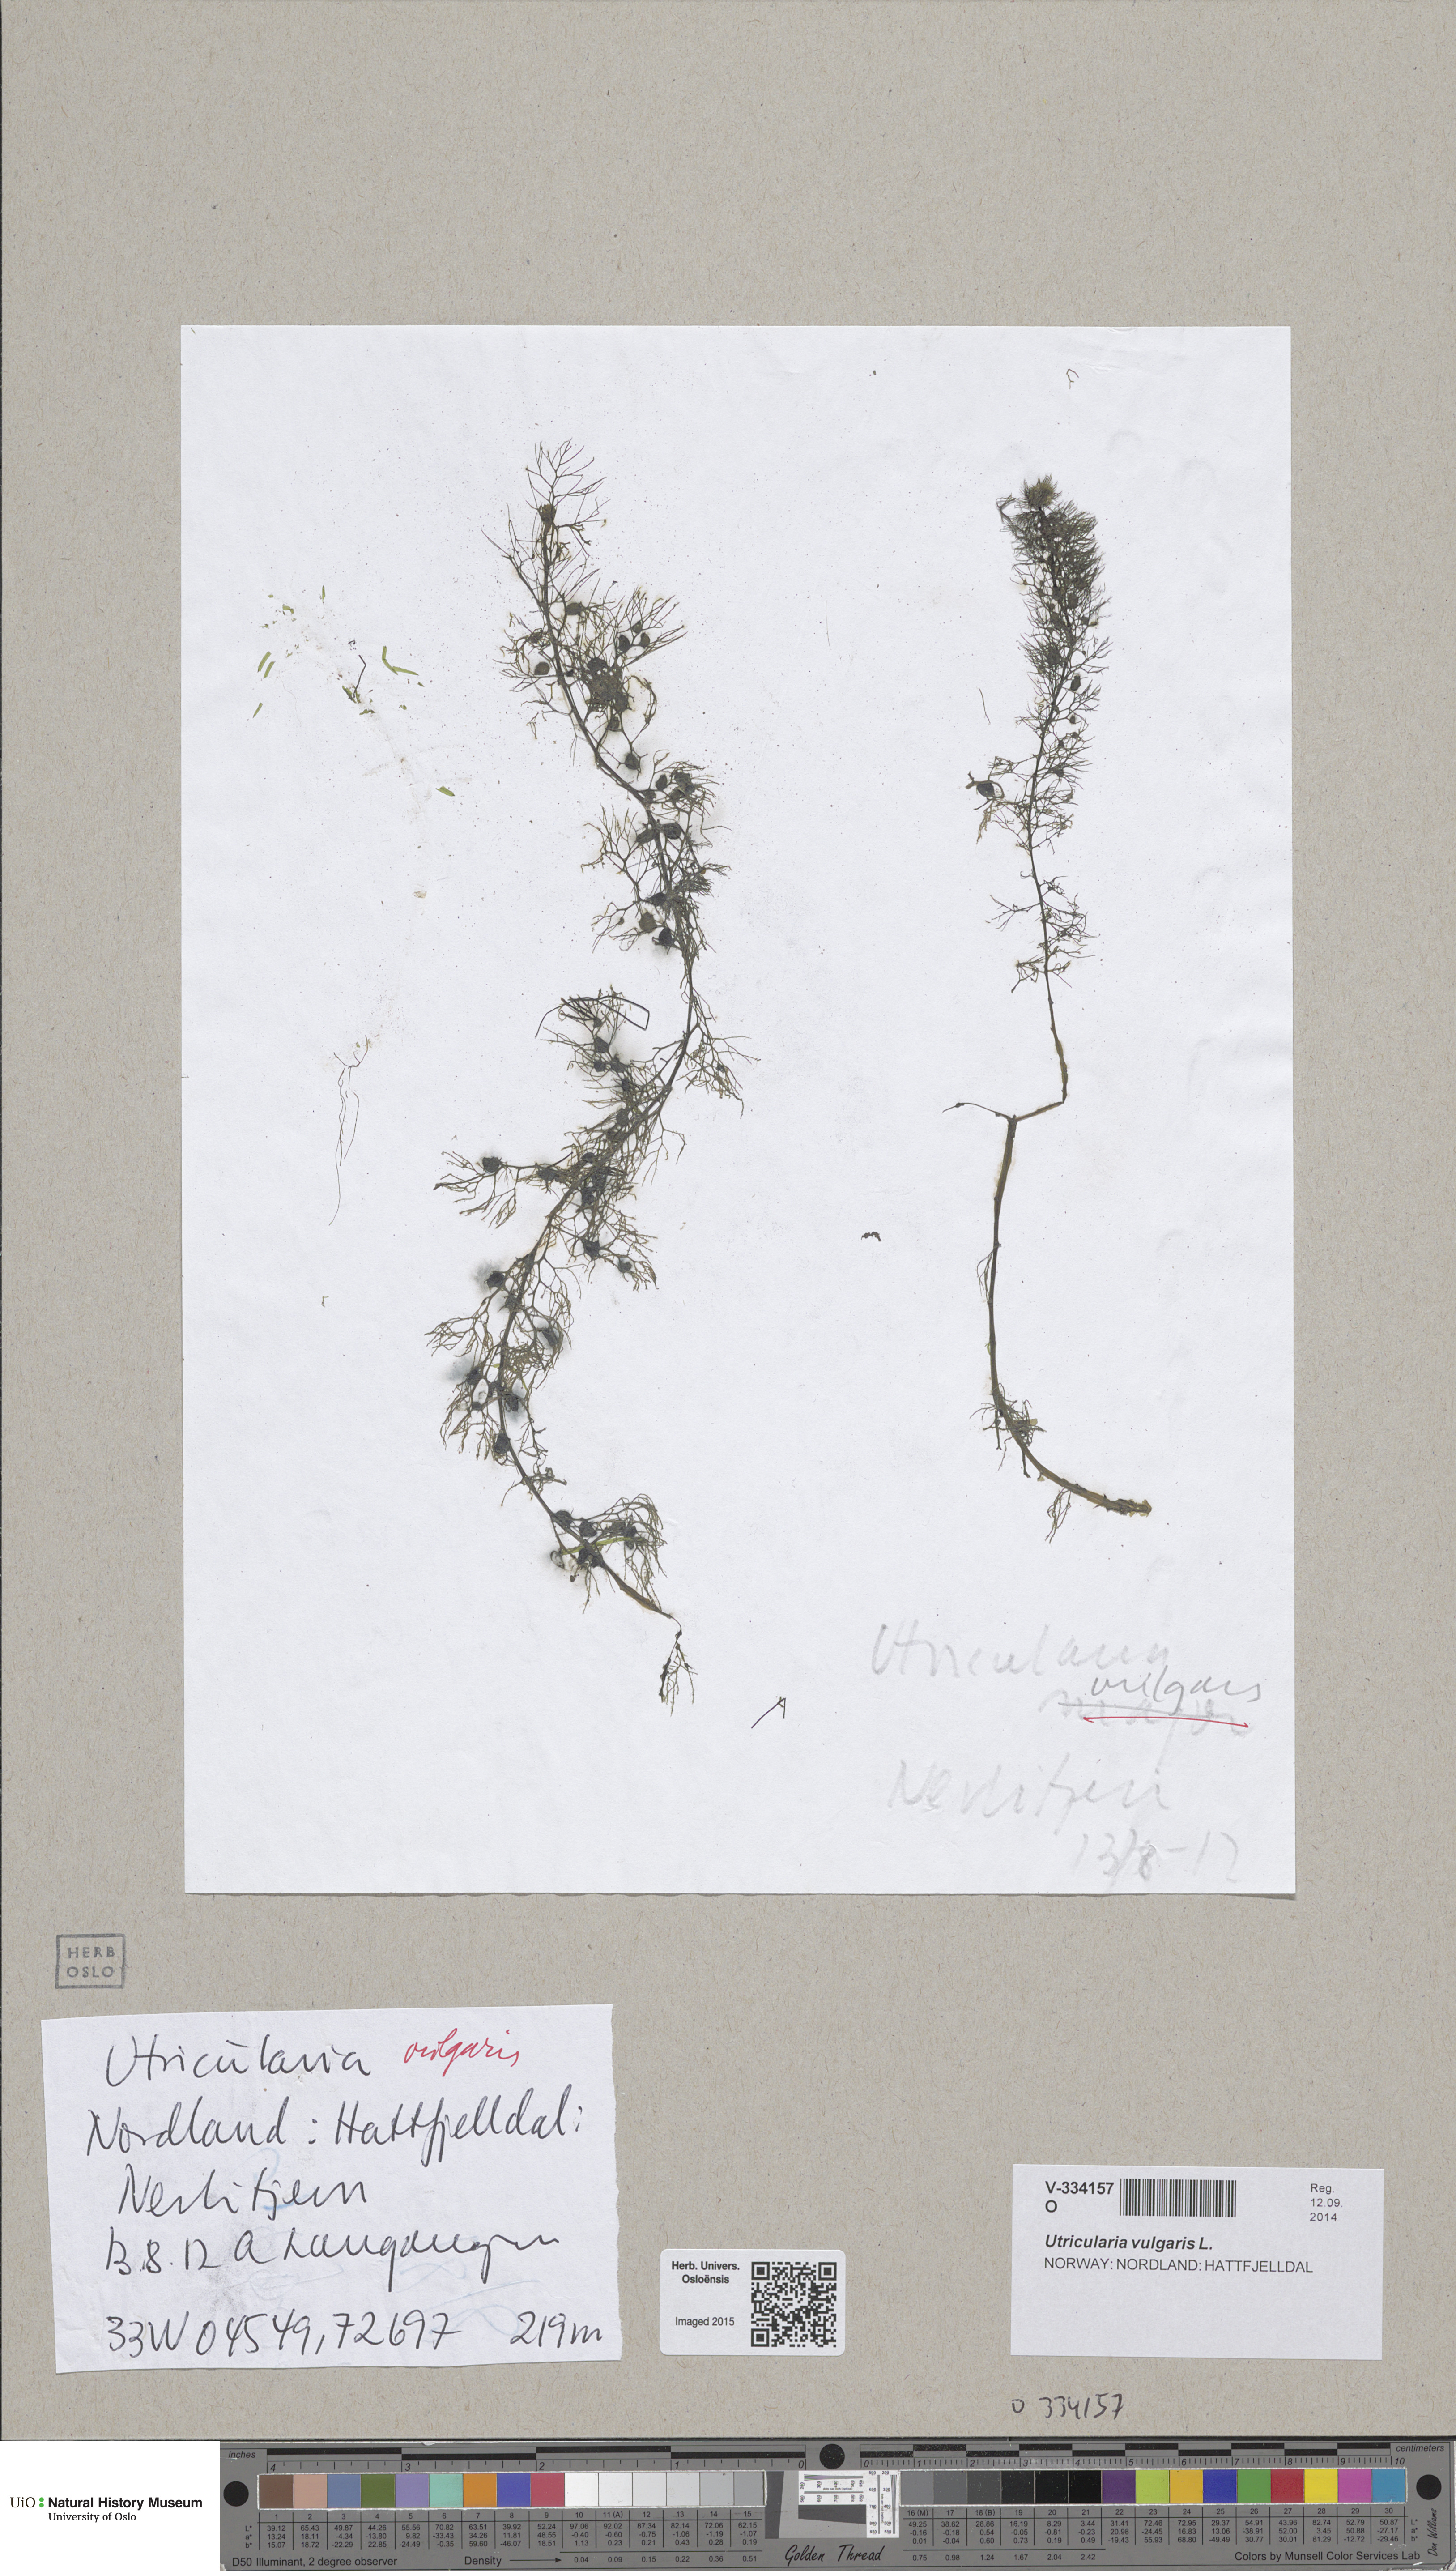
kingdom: Plantae
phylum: Tracheophyta
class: Magnoliopsida
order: Lamiales
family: Lentibulariaceae
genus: Utricularia
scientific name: Utricularia vulgaris
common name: Greater bladderwort
